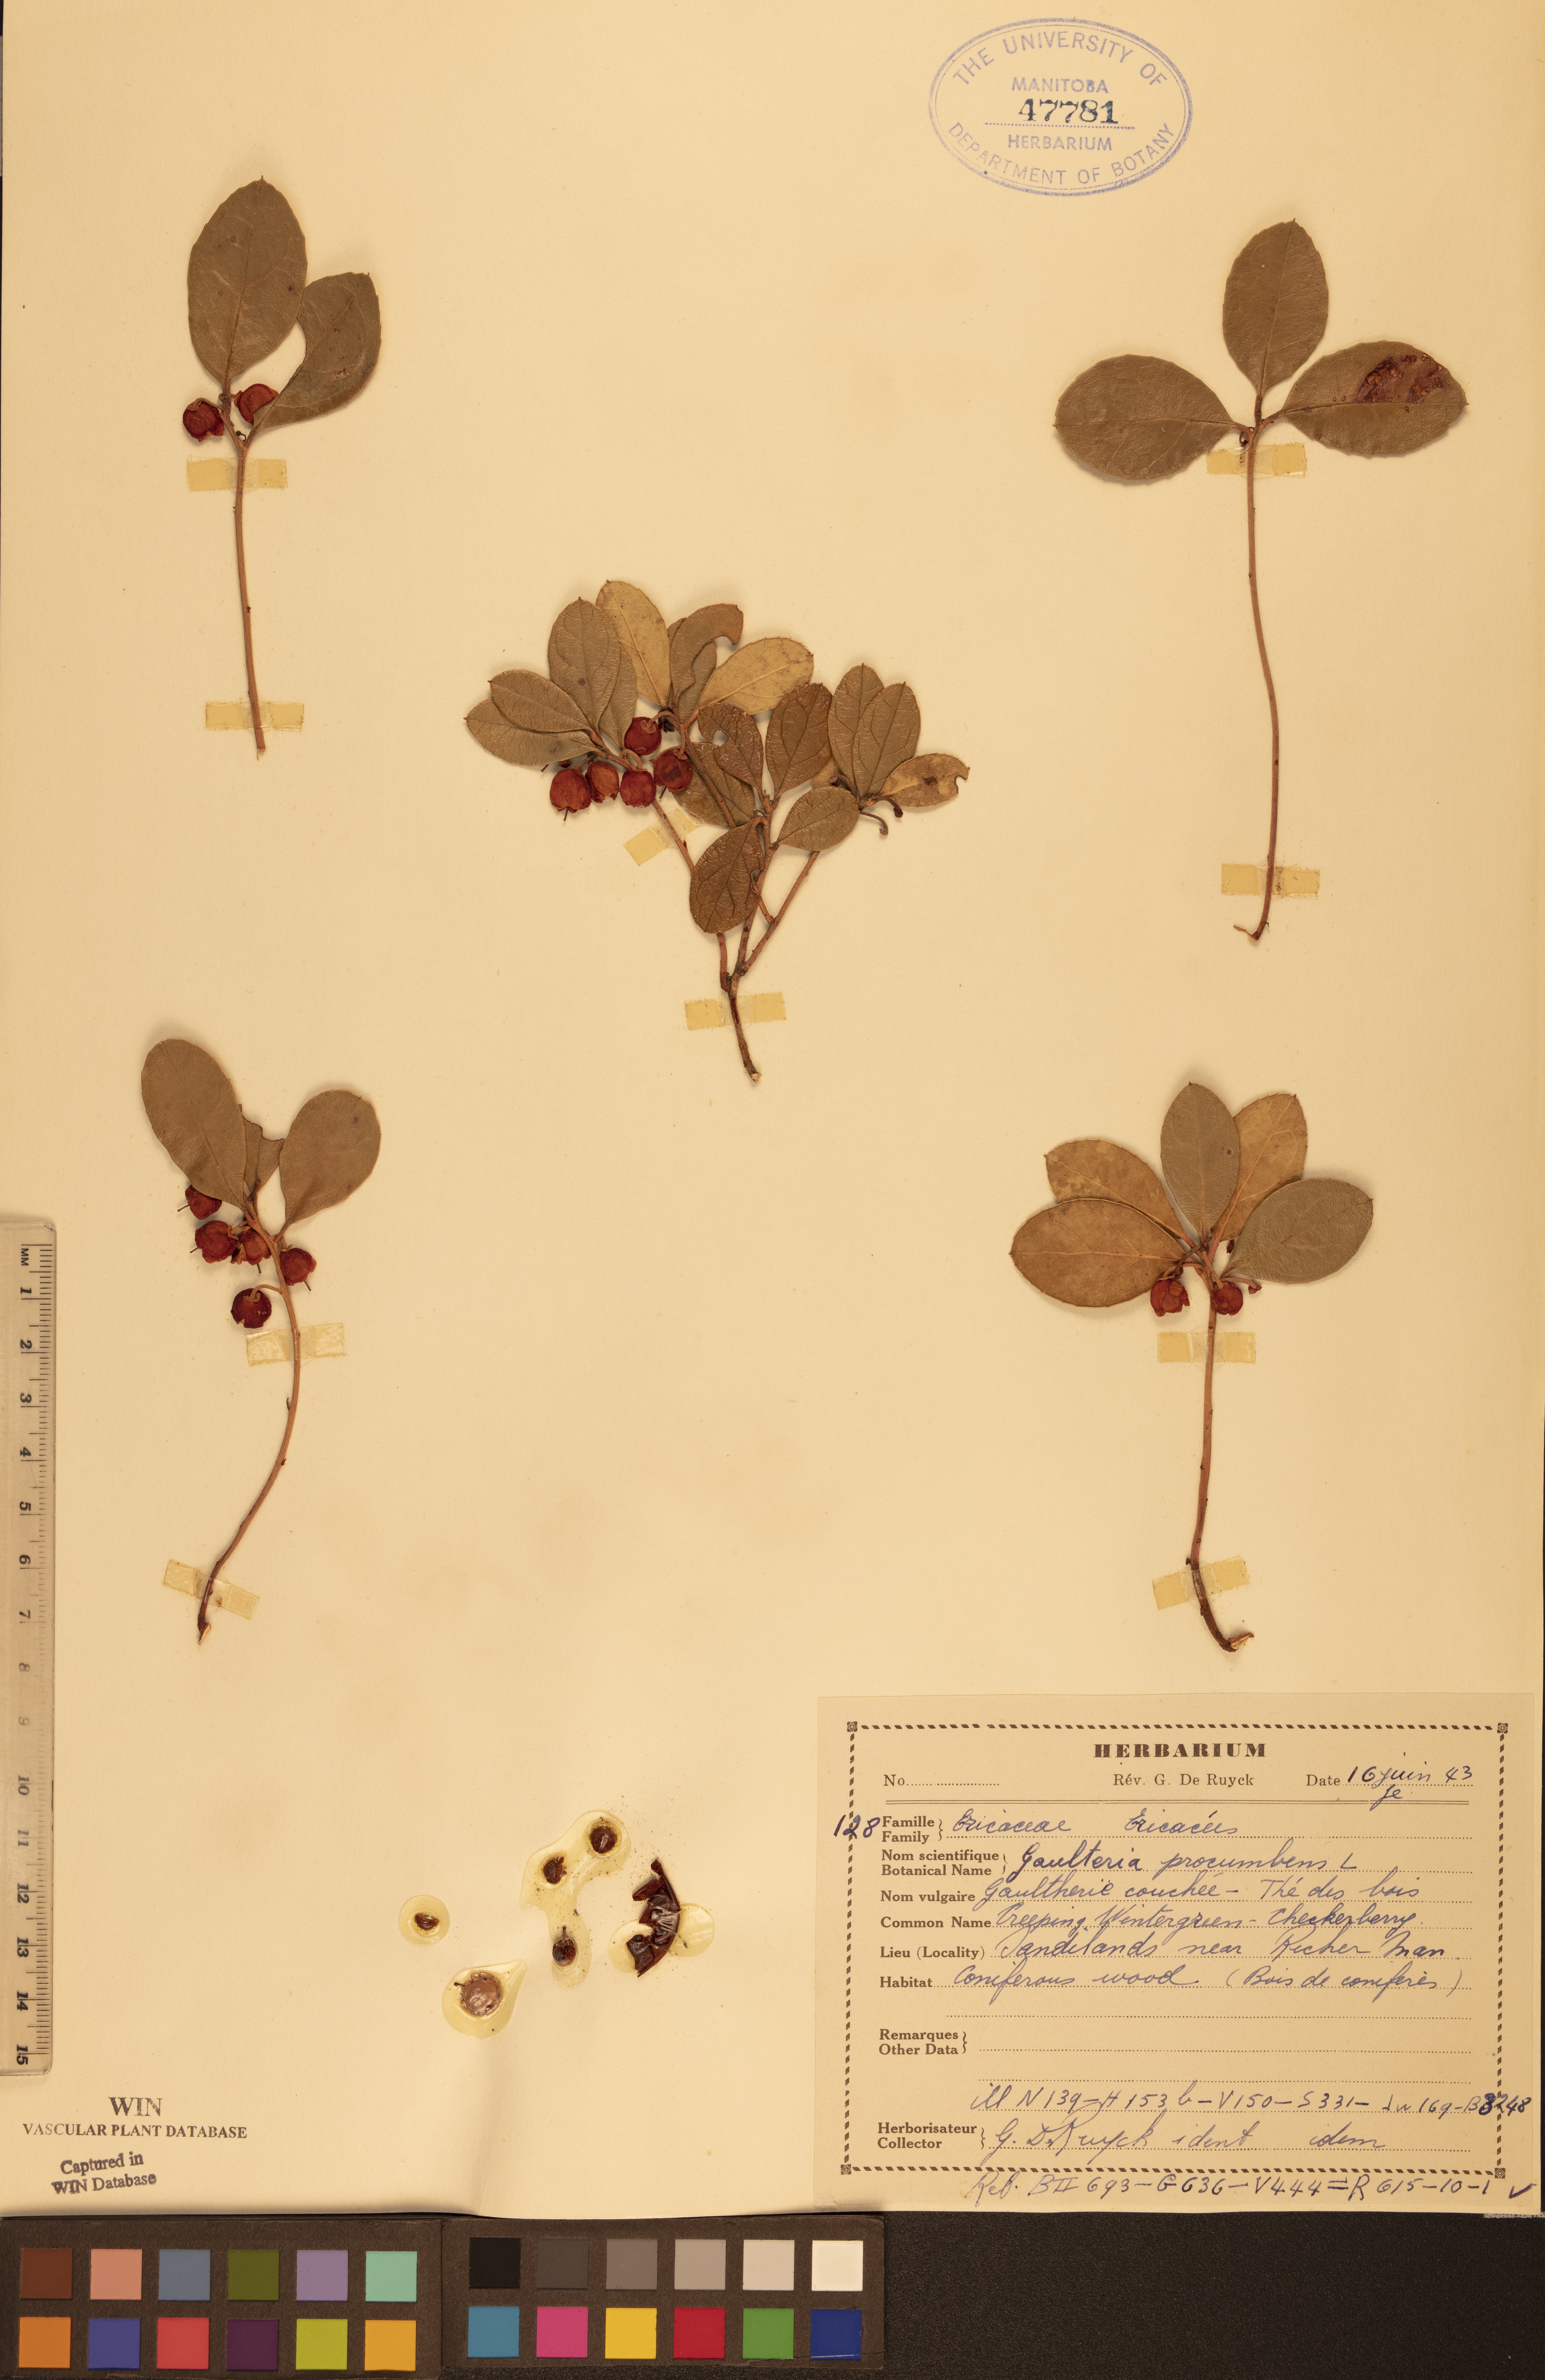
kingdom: Plantae
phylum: Tracheophyta
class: Magnoliopsida
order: Ericales
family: Ericaceae
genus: Gaultheria
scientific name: Gaultheria procumbens
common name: Checkerberry
